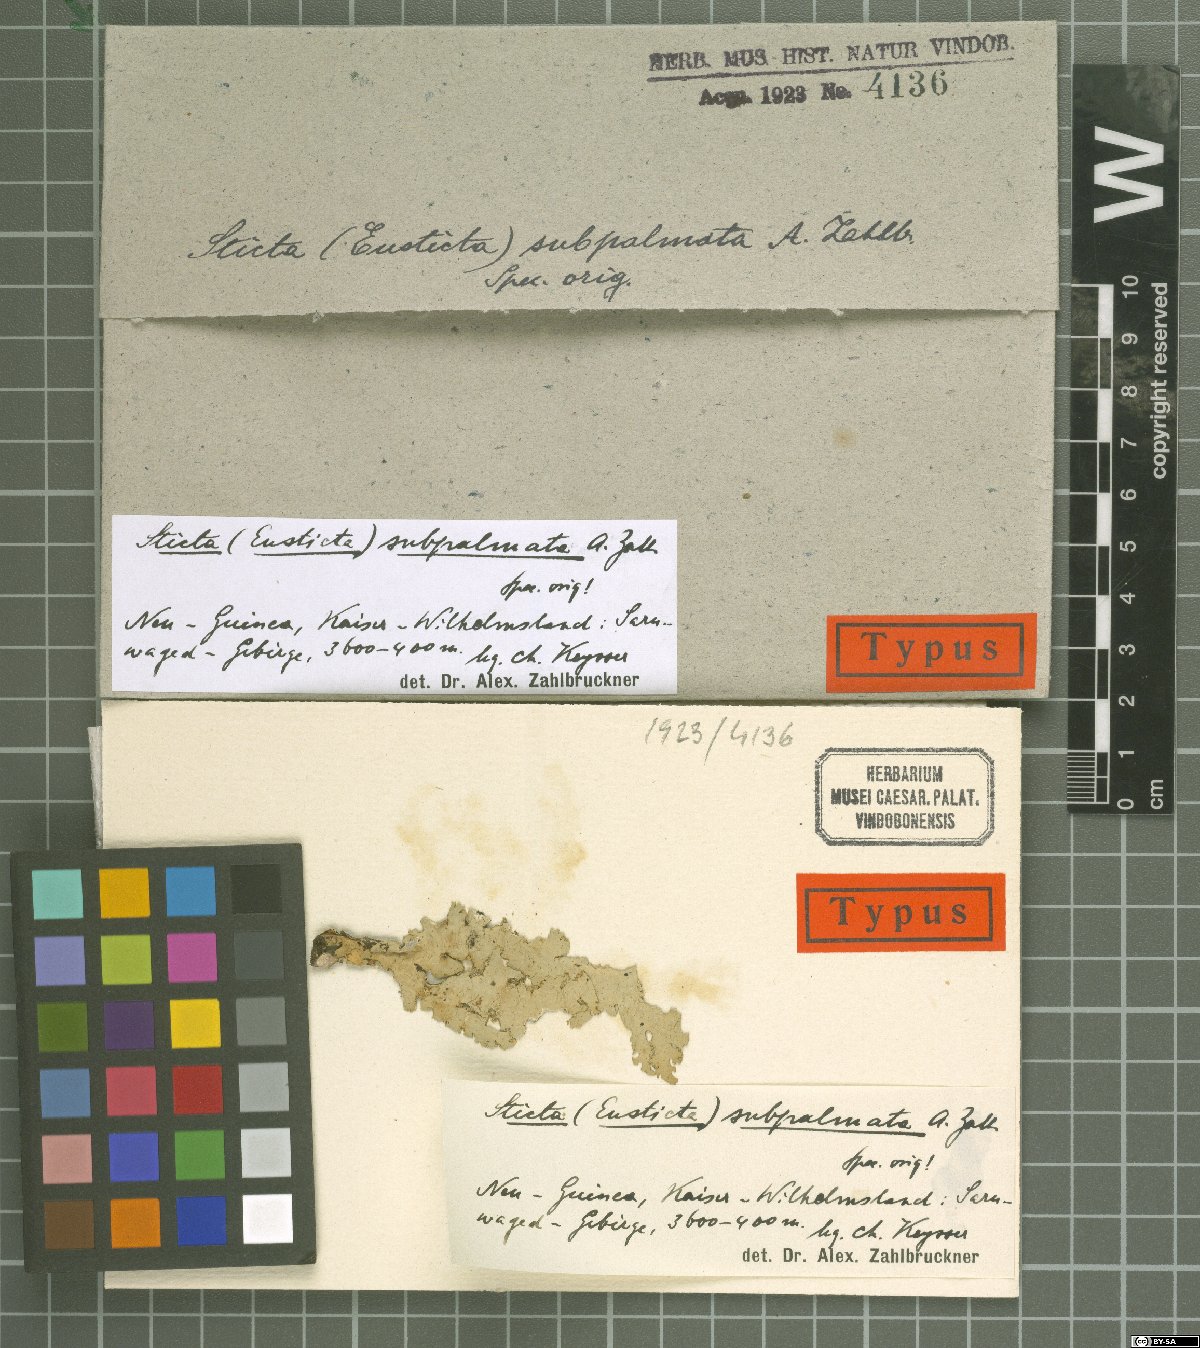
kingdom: Fungi
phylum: Ascomycota
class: Lecanoromycetes
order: Peltigerales
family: Lobariaceae
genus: Sticta
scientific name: Sticta
